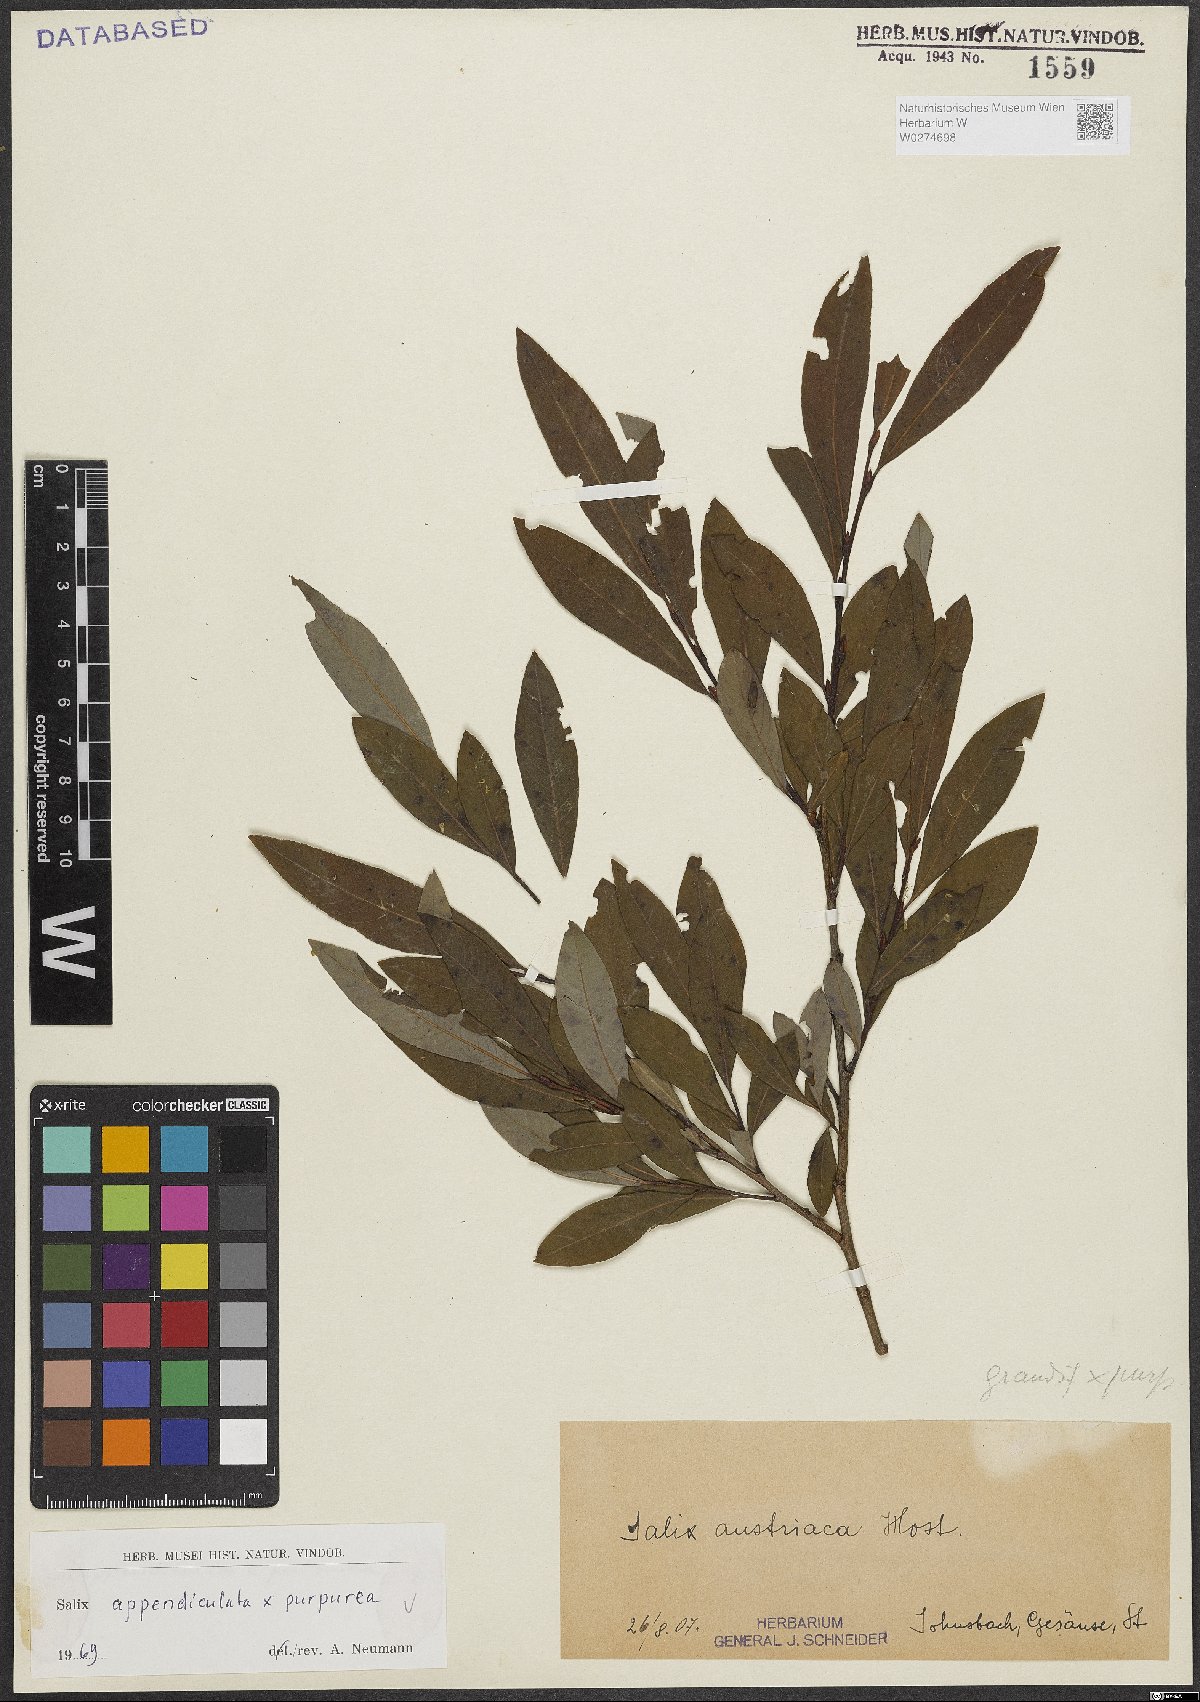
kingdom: Plantae
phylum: Tracheophyta
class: Magnoliopsida
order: Malpighiales
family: Salicaceae
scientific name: Salicaceae
